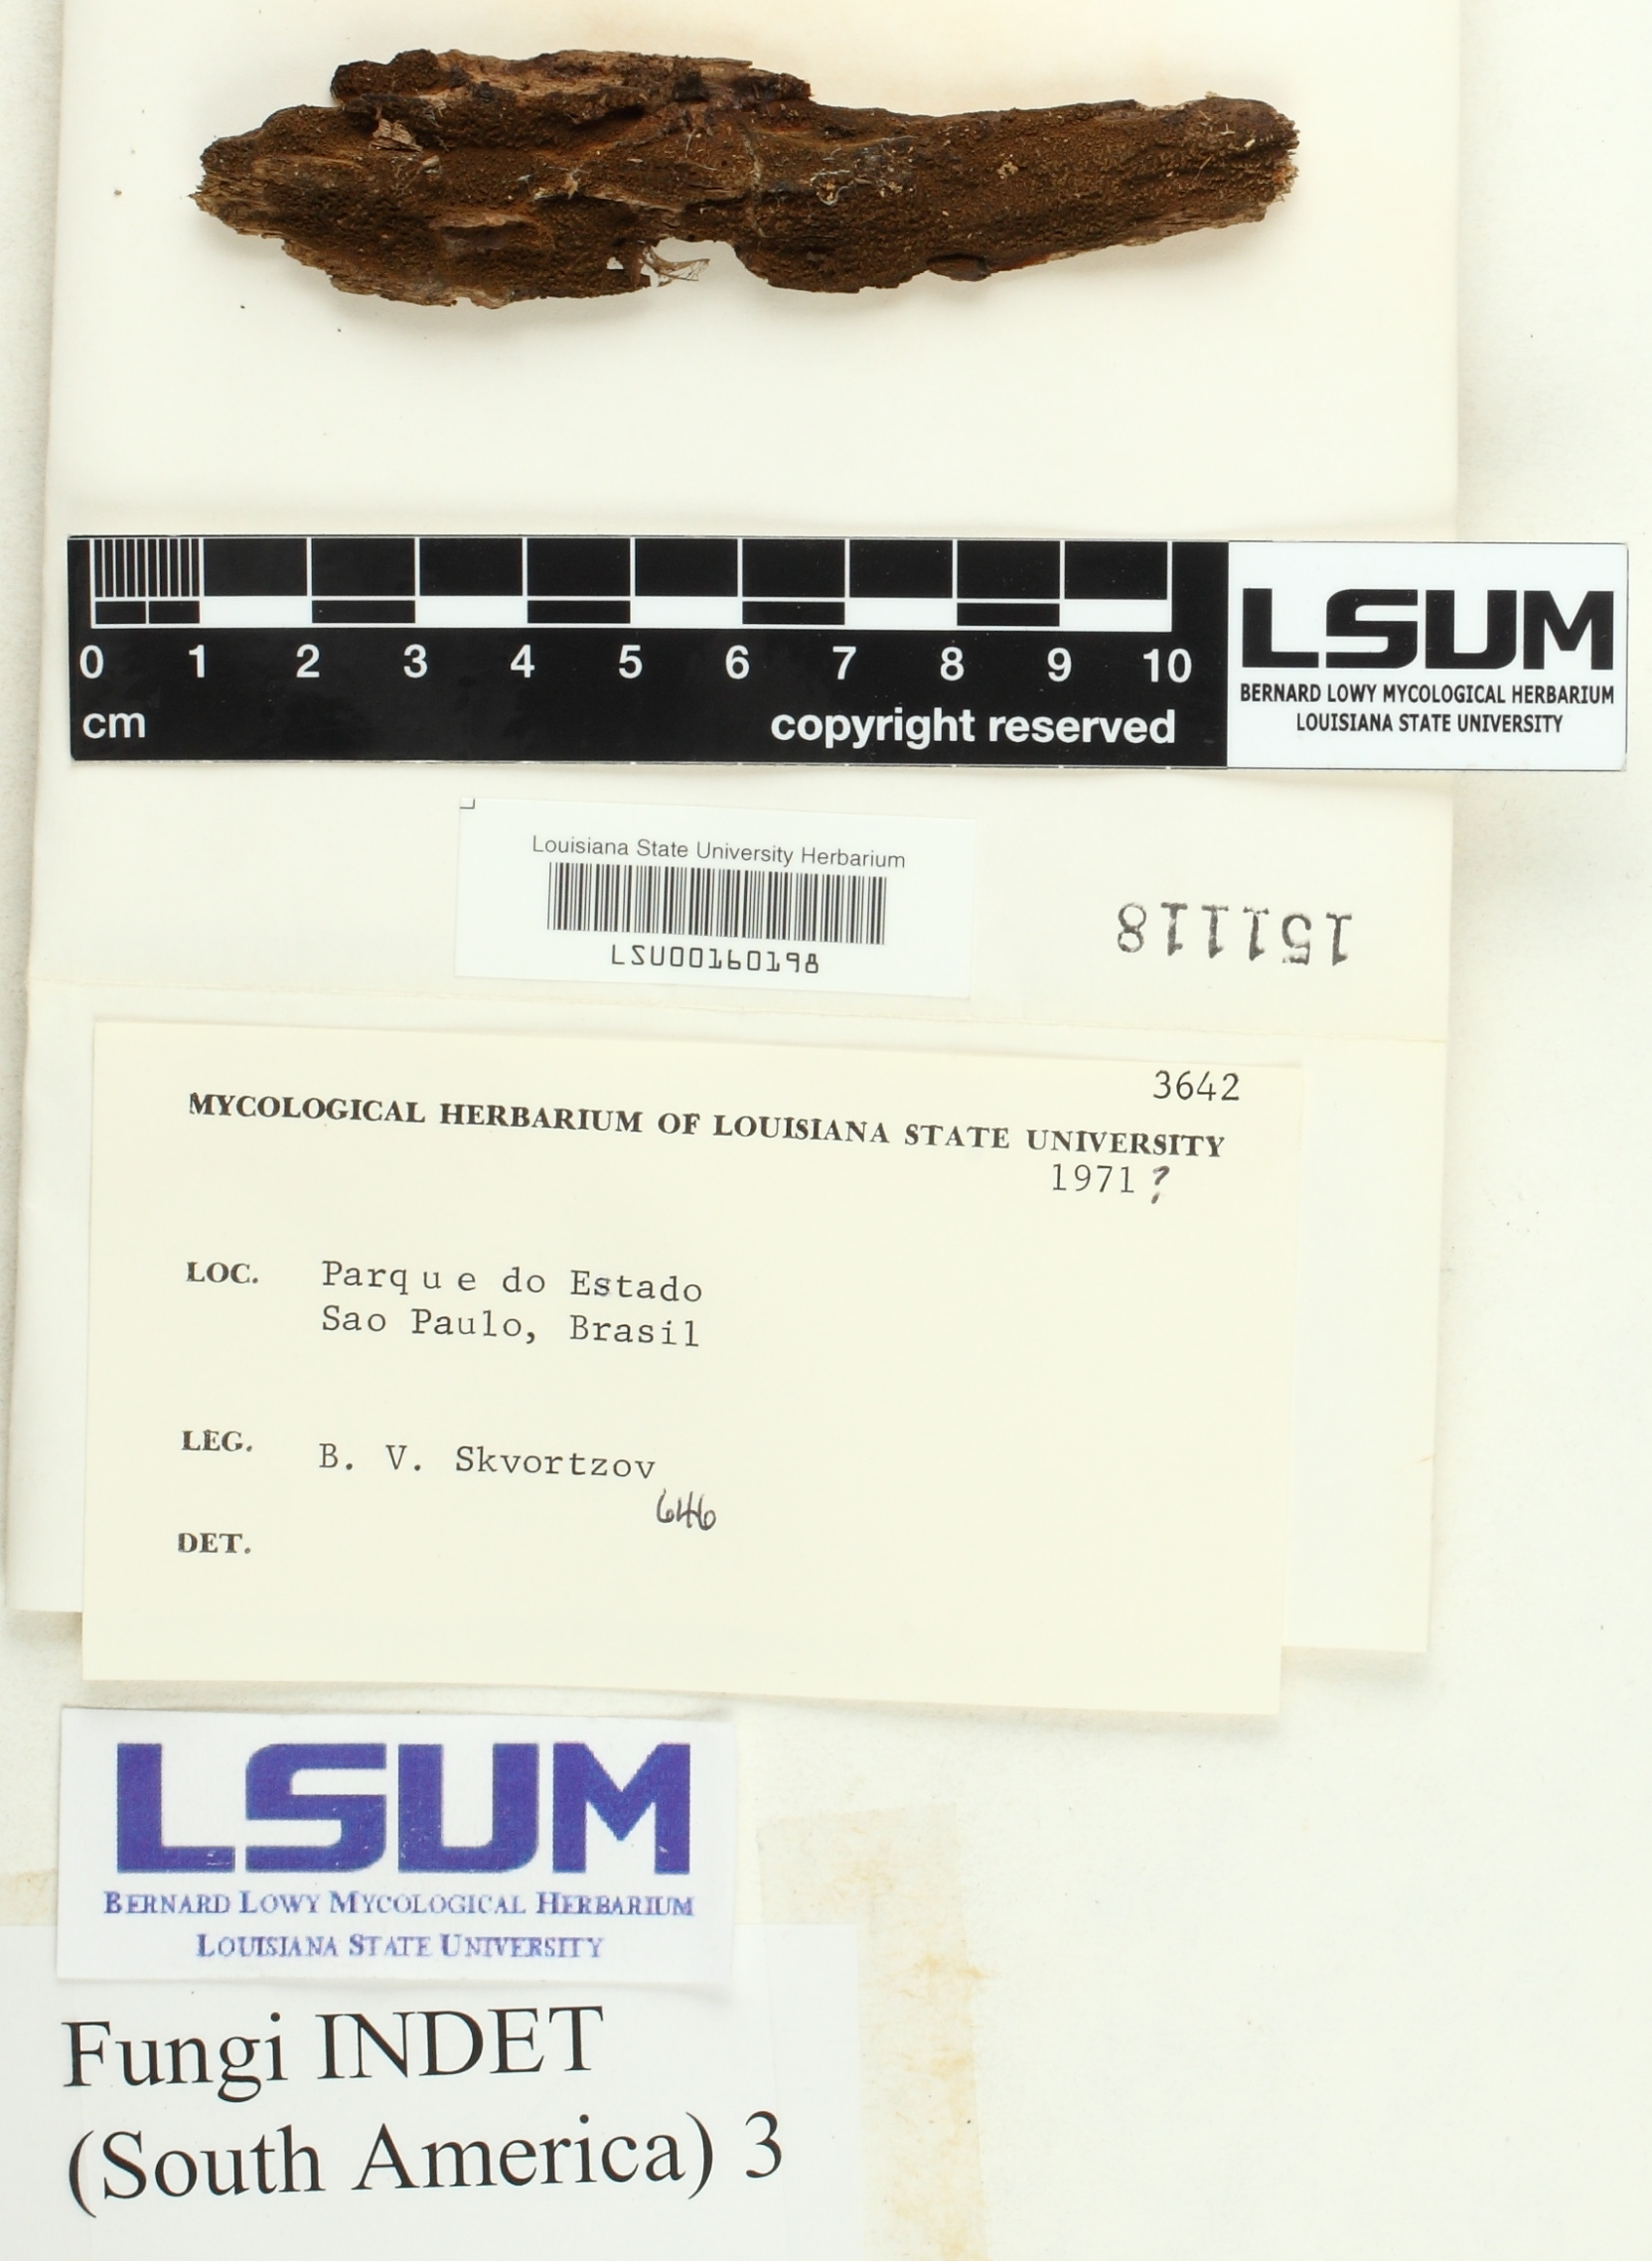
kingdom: Fungi
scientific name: Fungi
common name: Fungi
